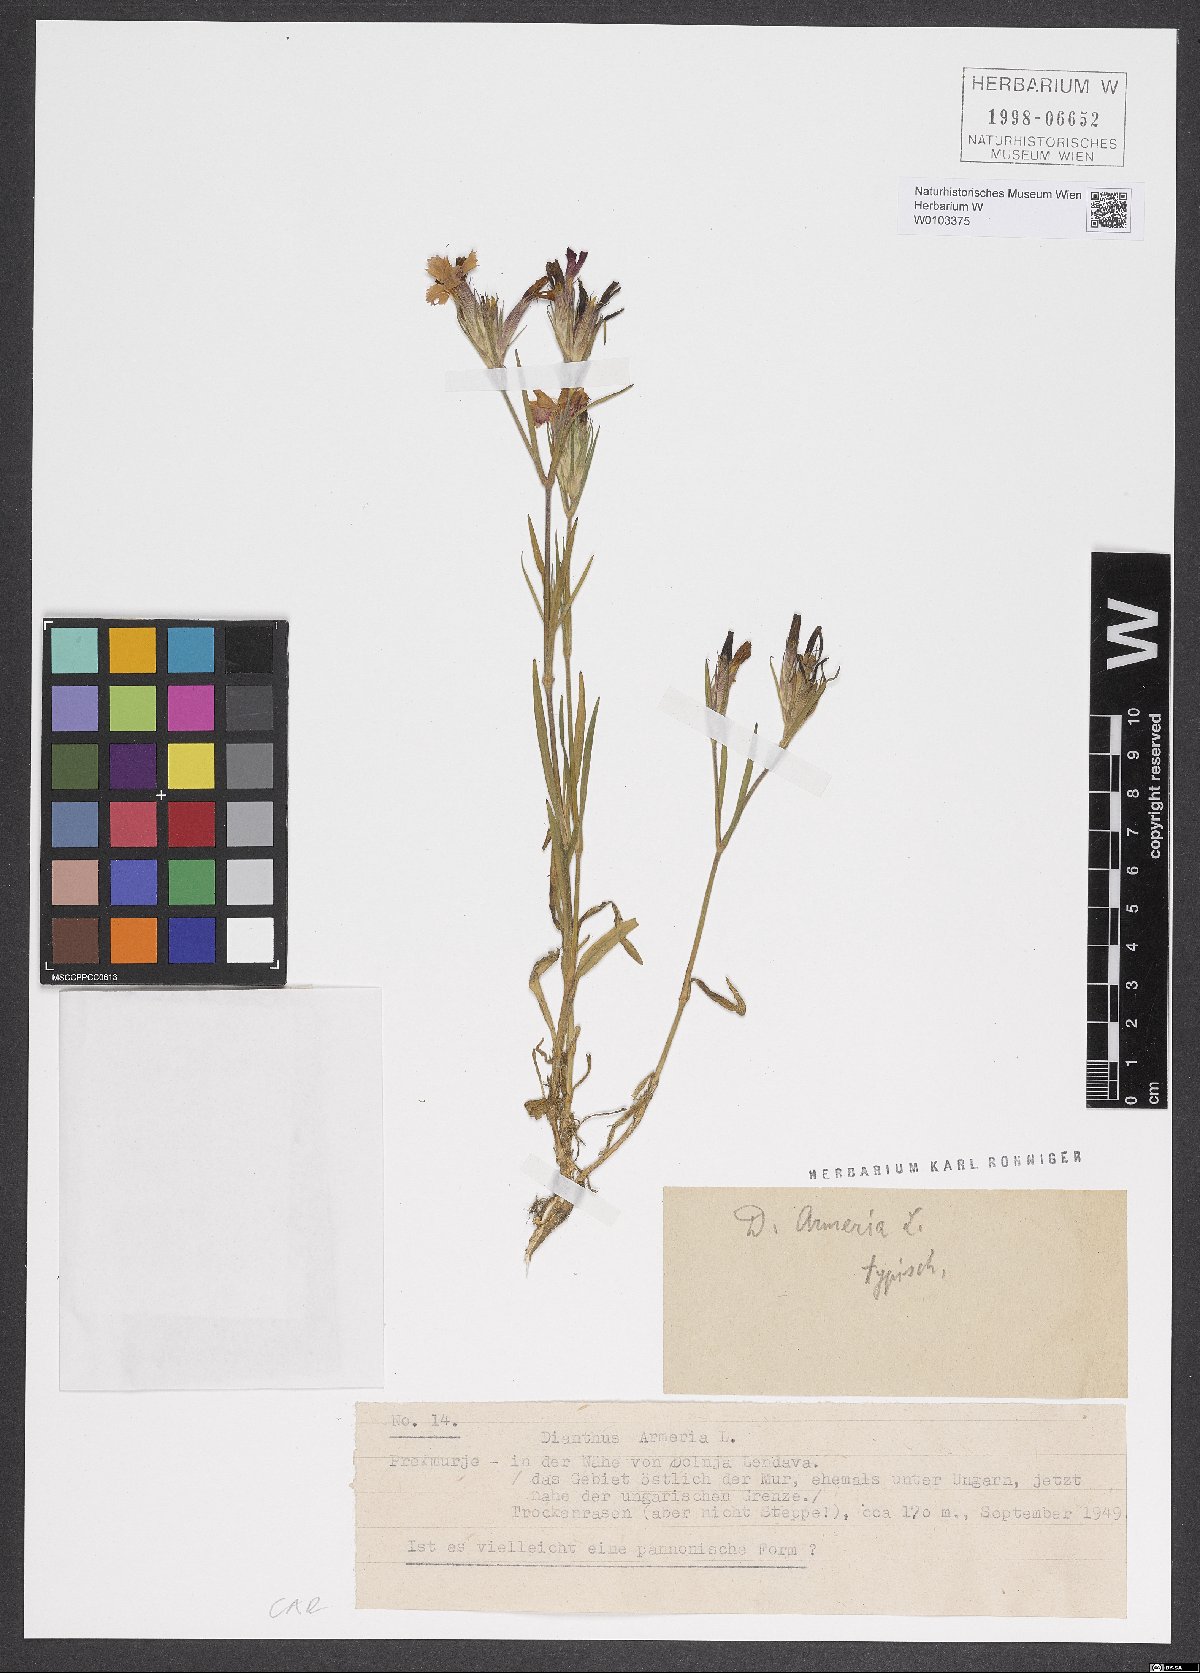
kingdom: Plantae
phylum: Tracheophyta
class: Magnoliopsida
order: Caryophyllales
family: Caryophyllaceae
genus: Dianthus
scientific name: Dianthus armeria
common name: Deptford pink
